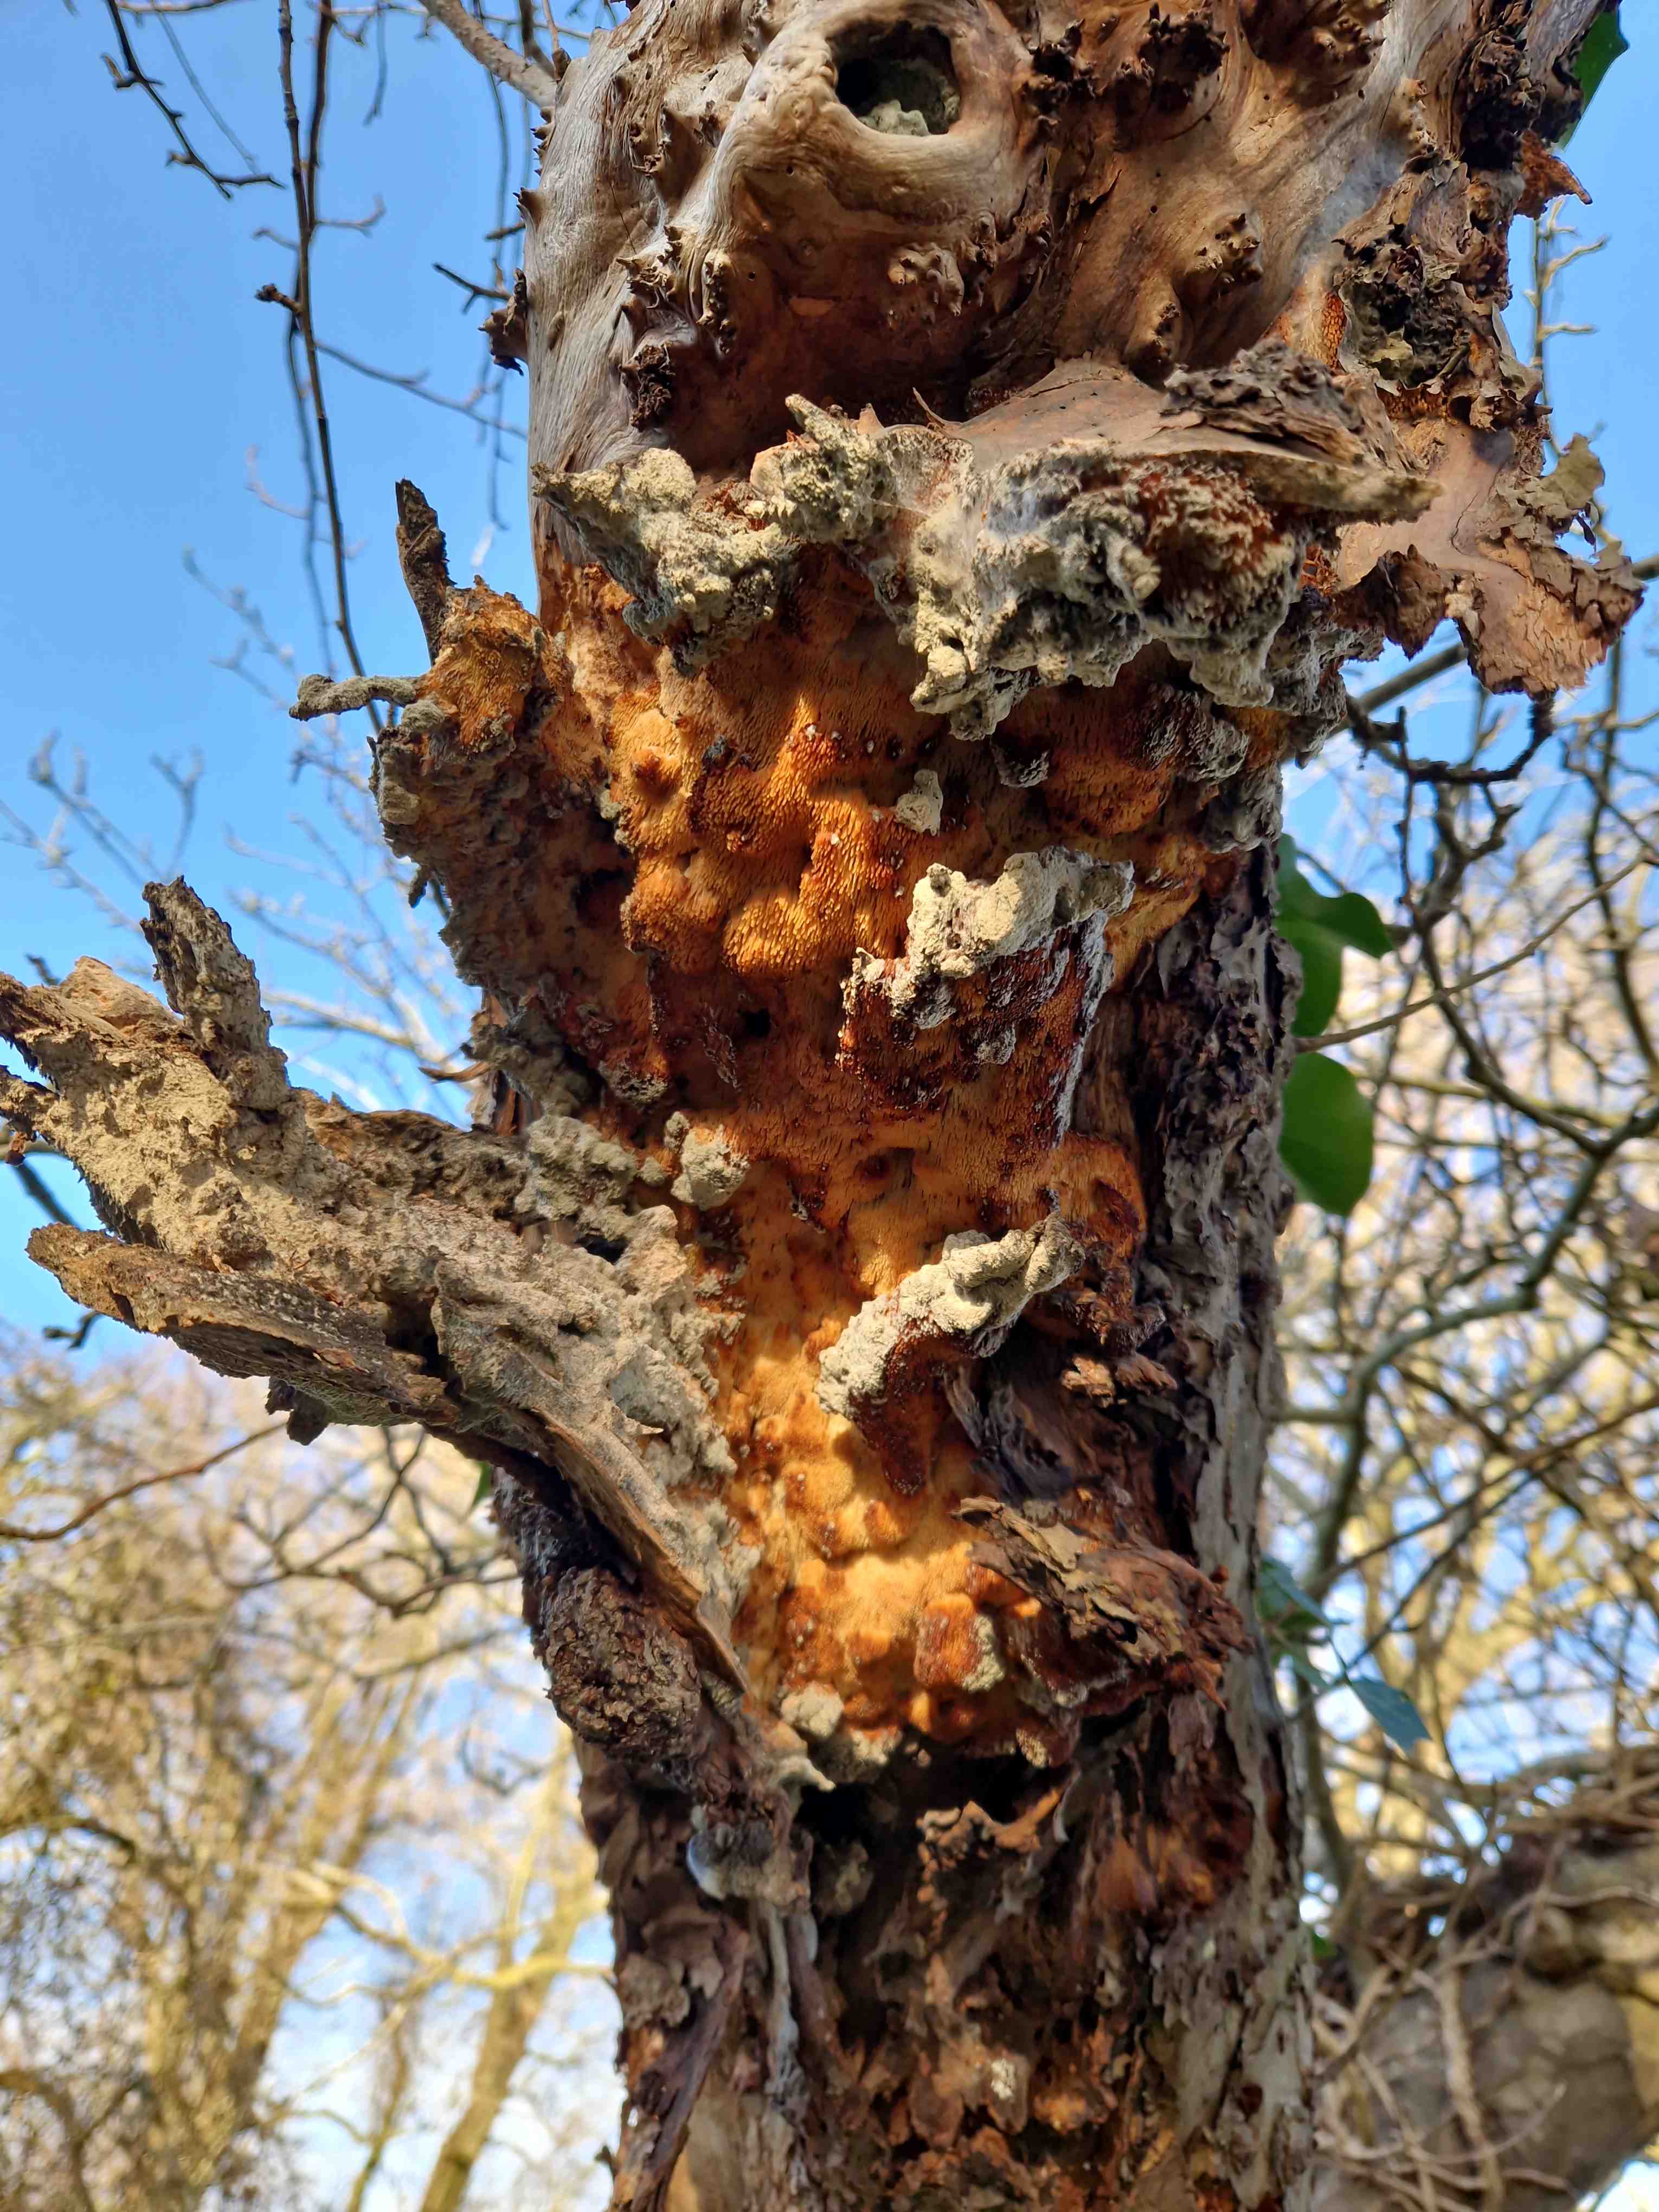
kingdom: Fungi
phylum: Basidiomycota
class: Agaricomycetes
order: Polyporales
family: Meruliaceae
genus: Sarcodontia
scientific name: Sarcodontia setosa
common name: æblepig
